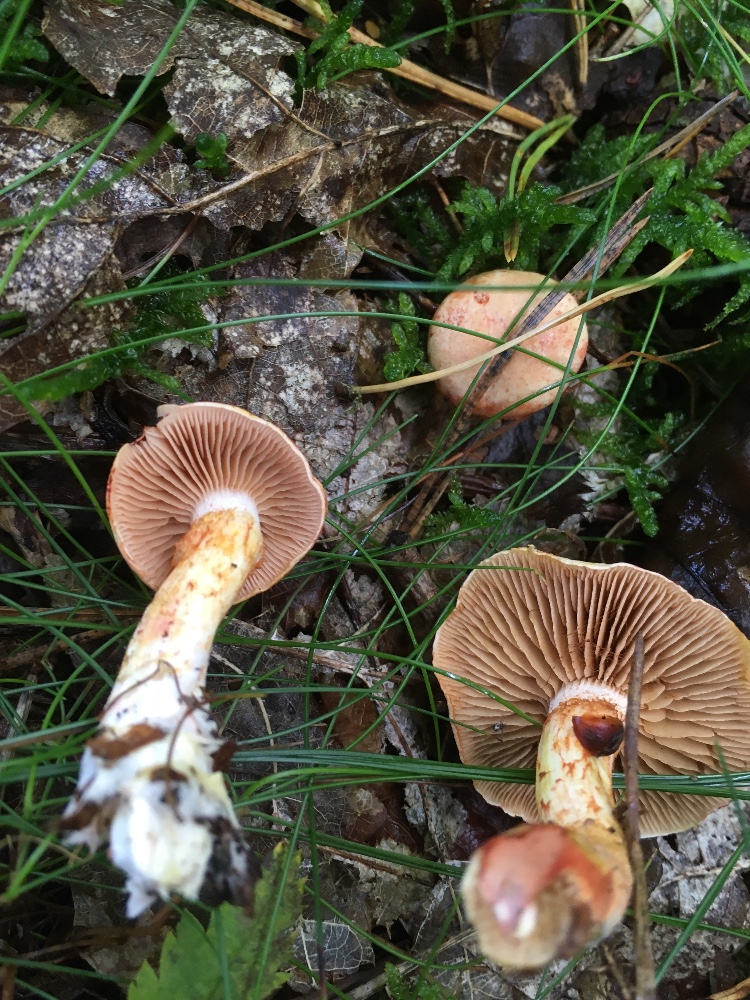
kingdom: Fungi
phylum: Basidiomycota
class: Agaricomycetes
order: Agaricales
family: Cortinariaceae
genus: Cortinarius
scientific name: Cortinarius bolaris
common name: cinnoberskællet slørhat
